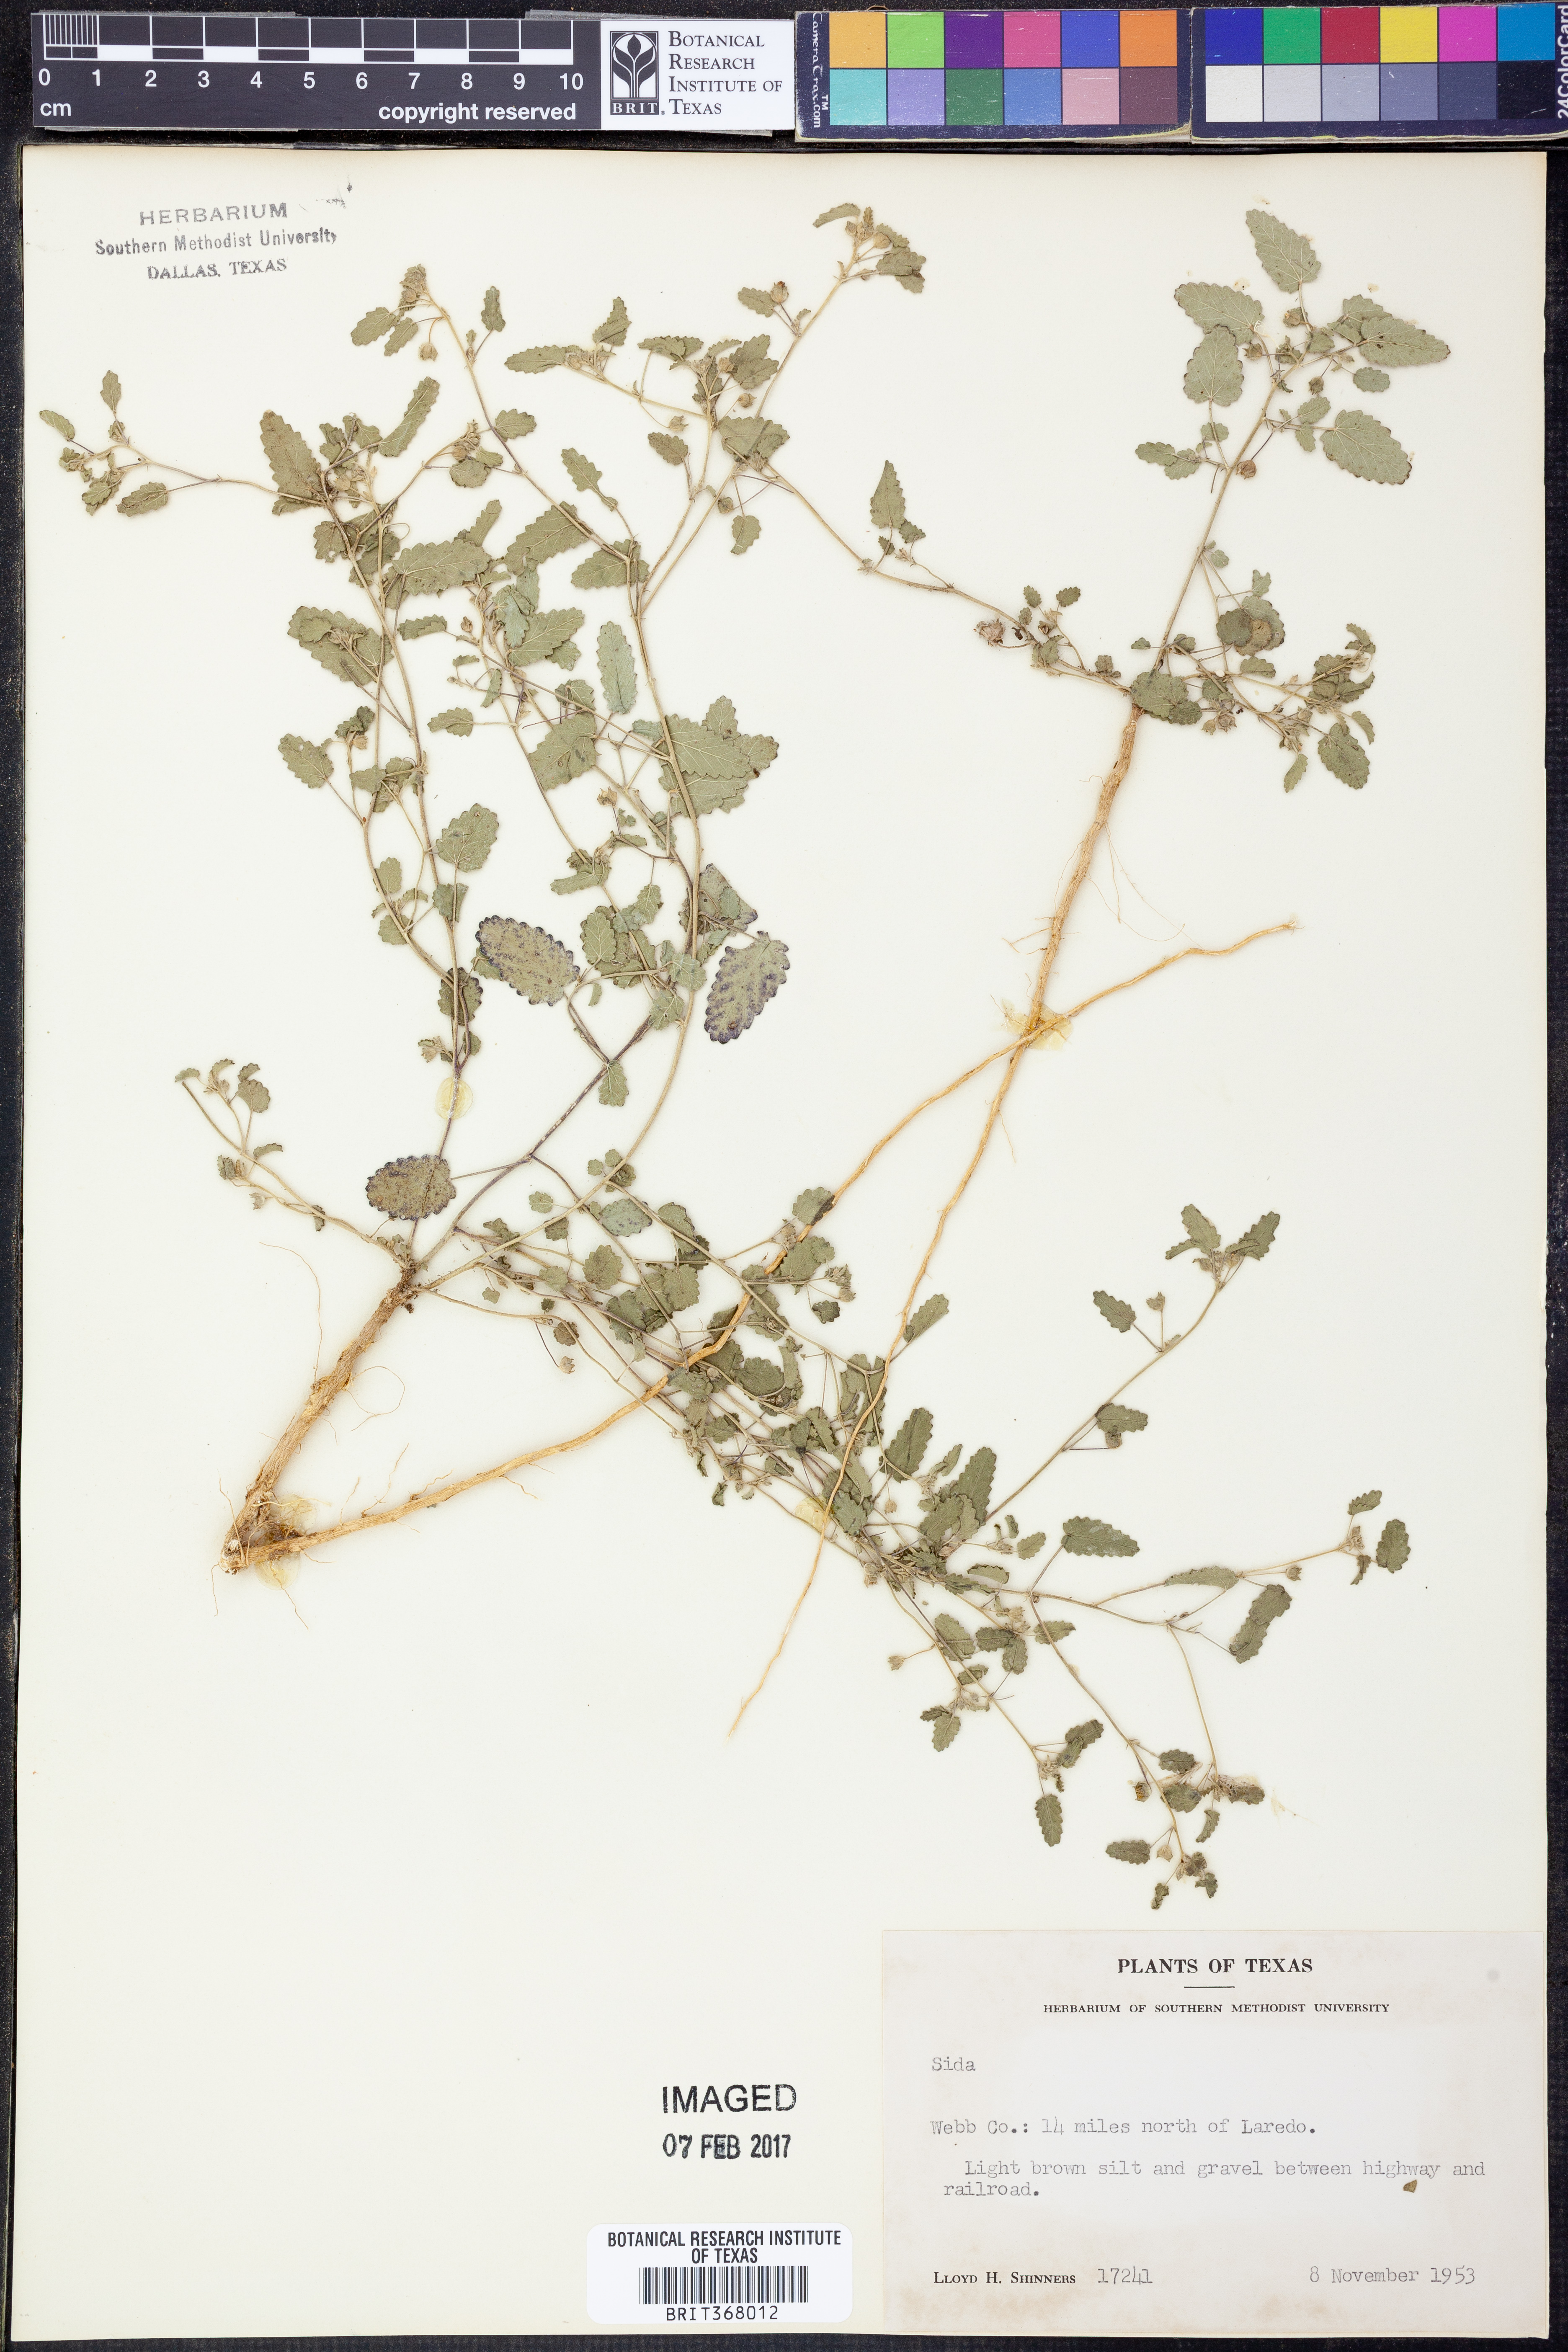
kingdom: Plantae
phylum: Tracheophyta
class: Magnoliopsida
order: Malvales
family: Malvaceae
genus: Sida
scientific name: Sida
